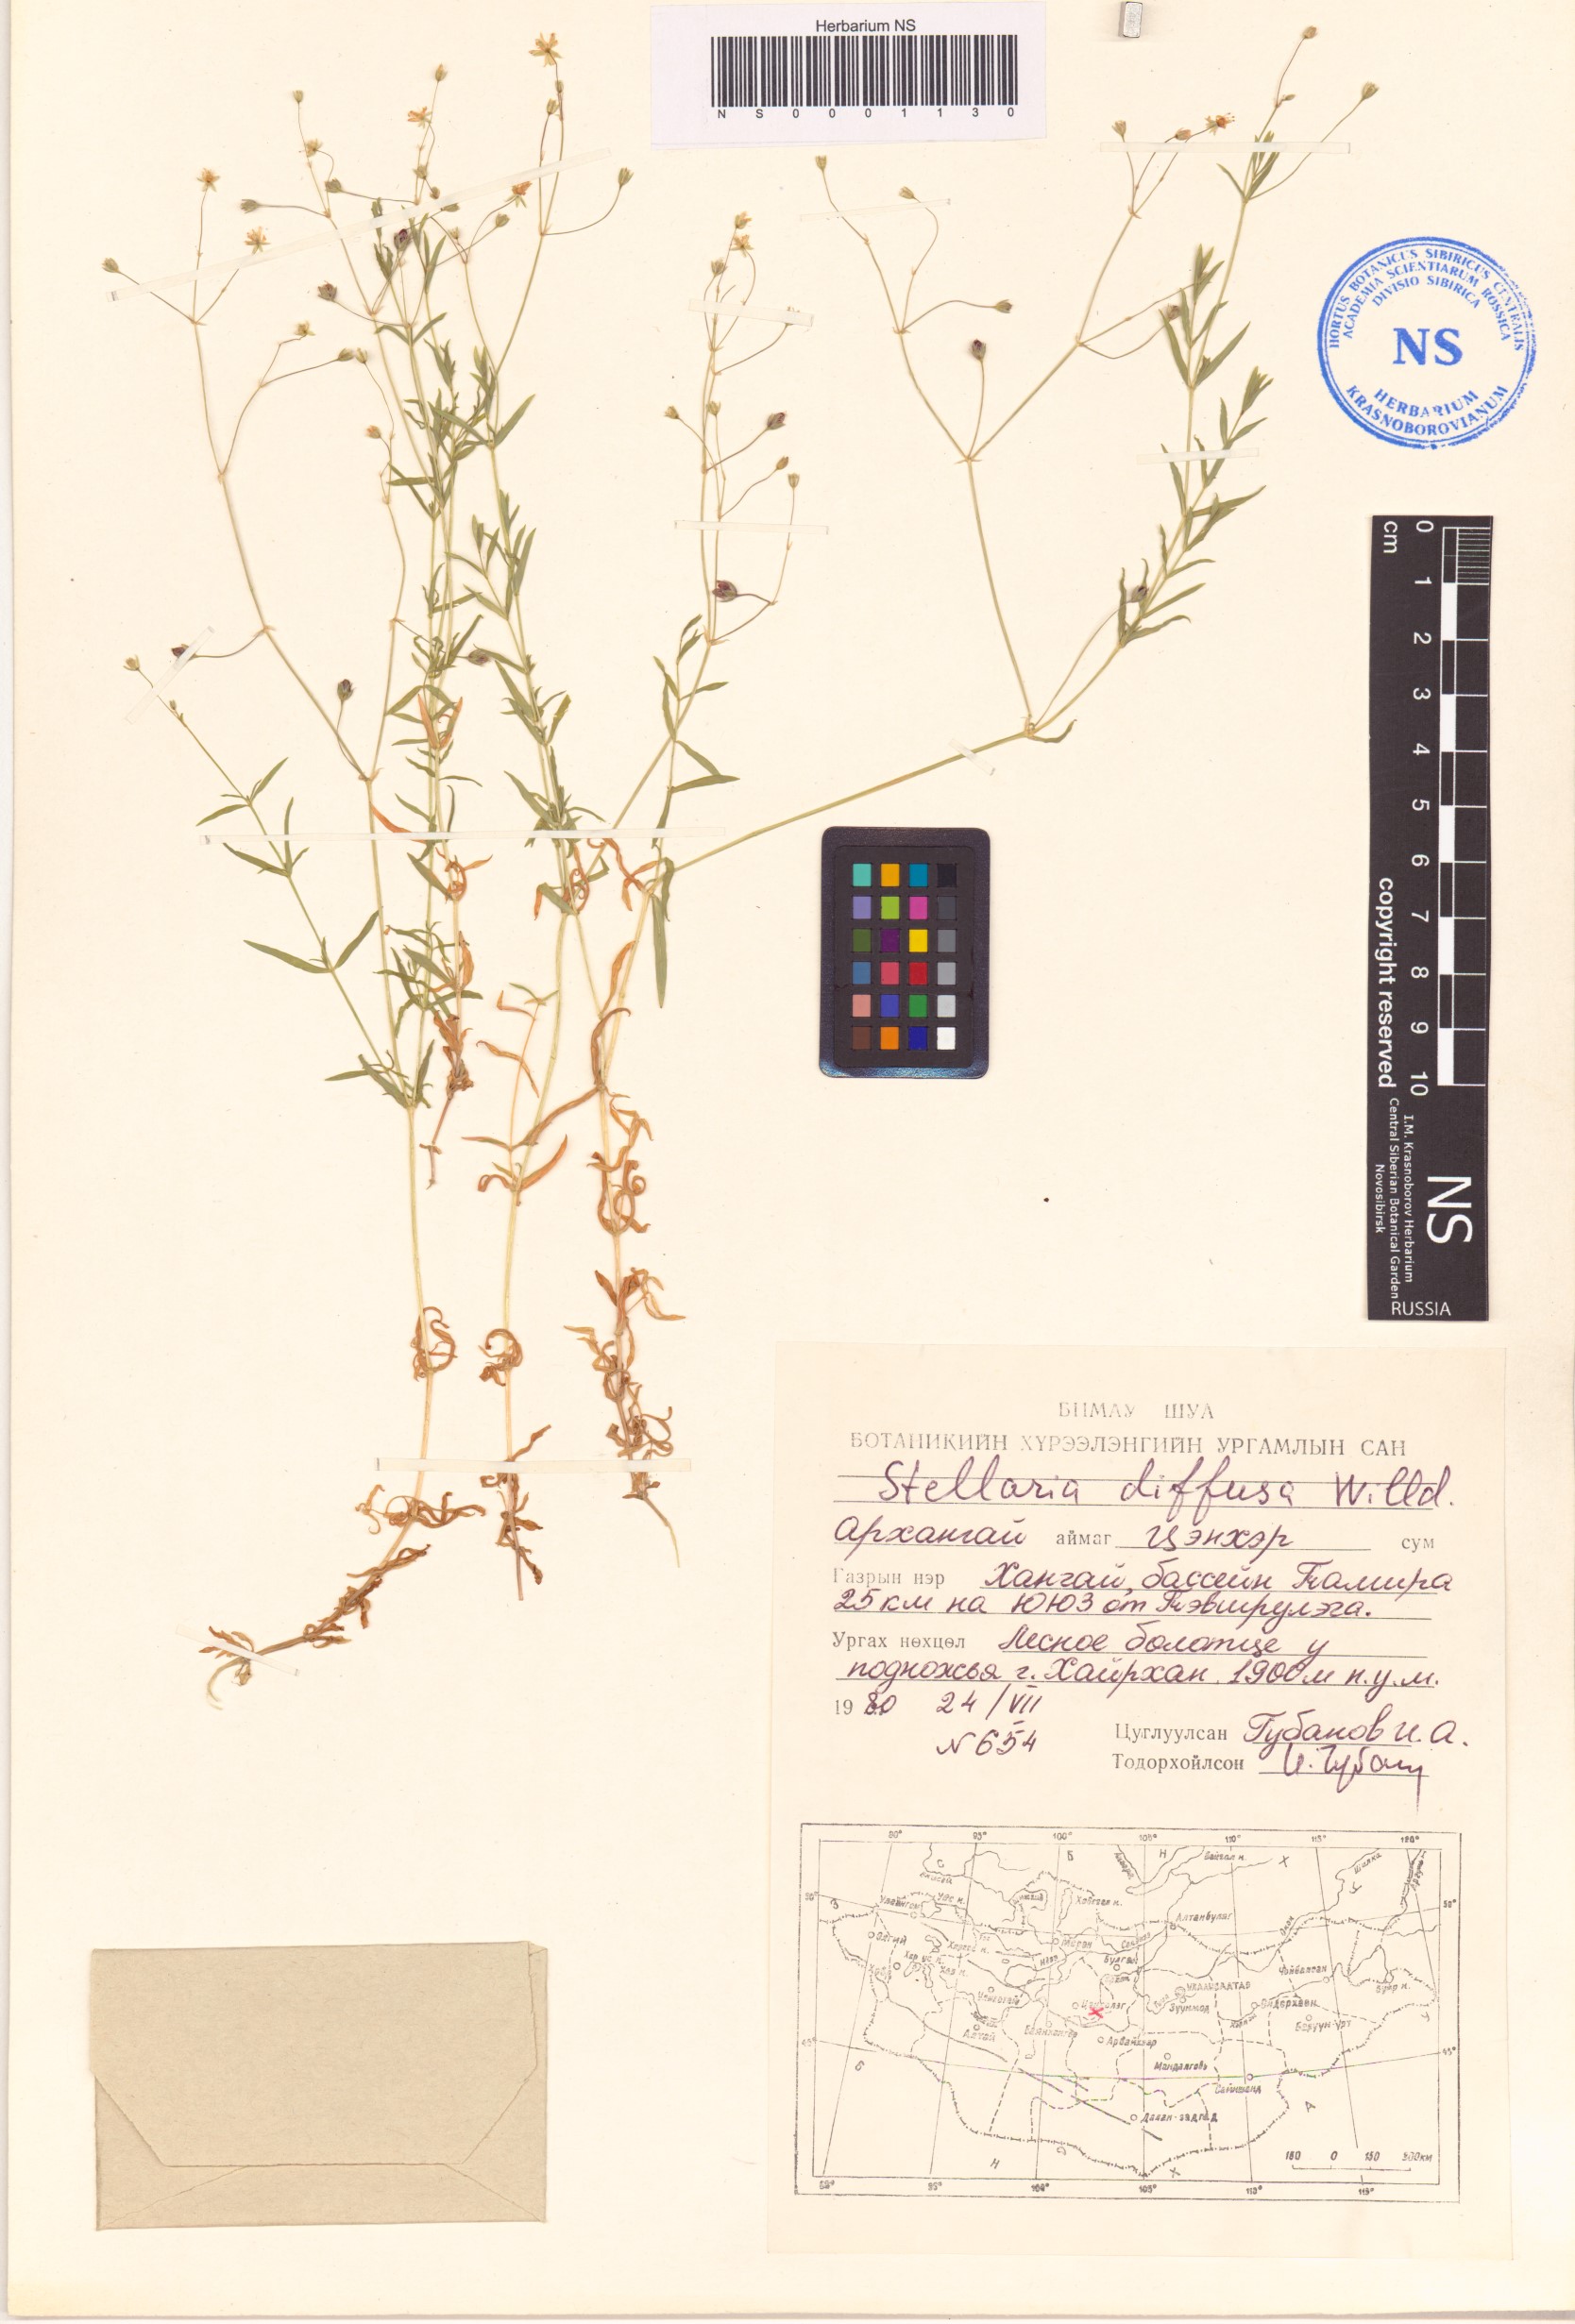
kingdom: Plantae
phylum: Tracheophyta
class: Magnoliopsida
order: Caryophyllales
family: Caryophyllaceae
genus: Stellaria
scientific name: Stellaria longifolia
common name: Long-leaved chickweed
